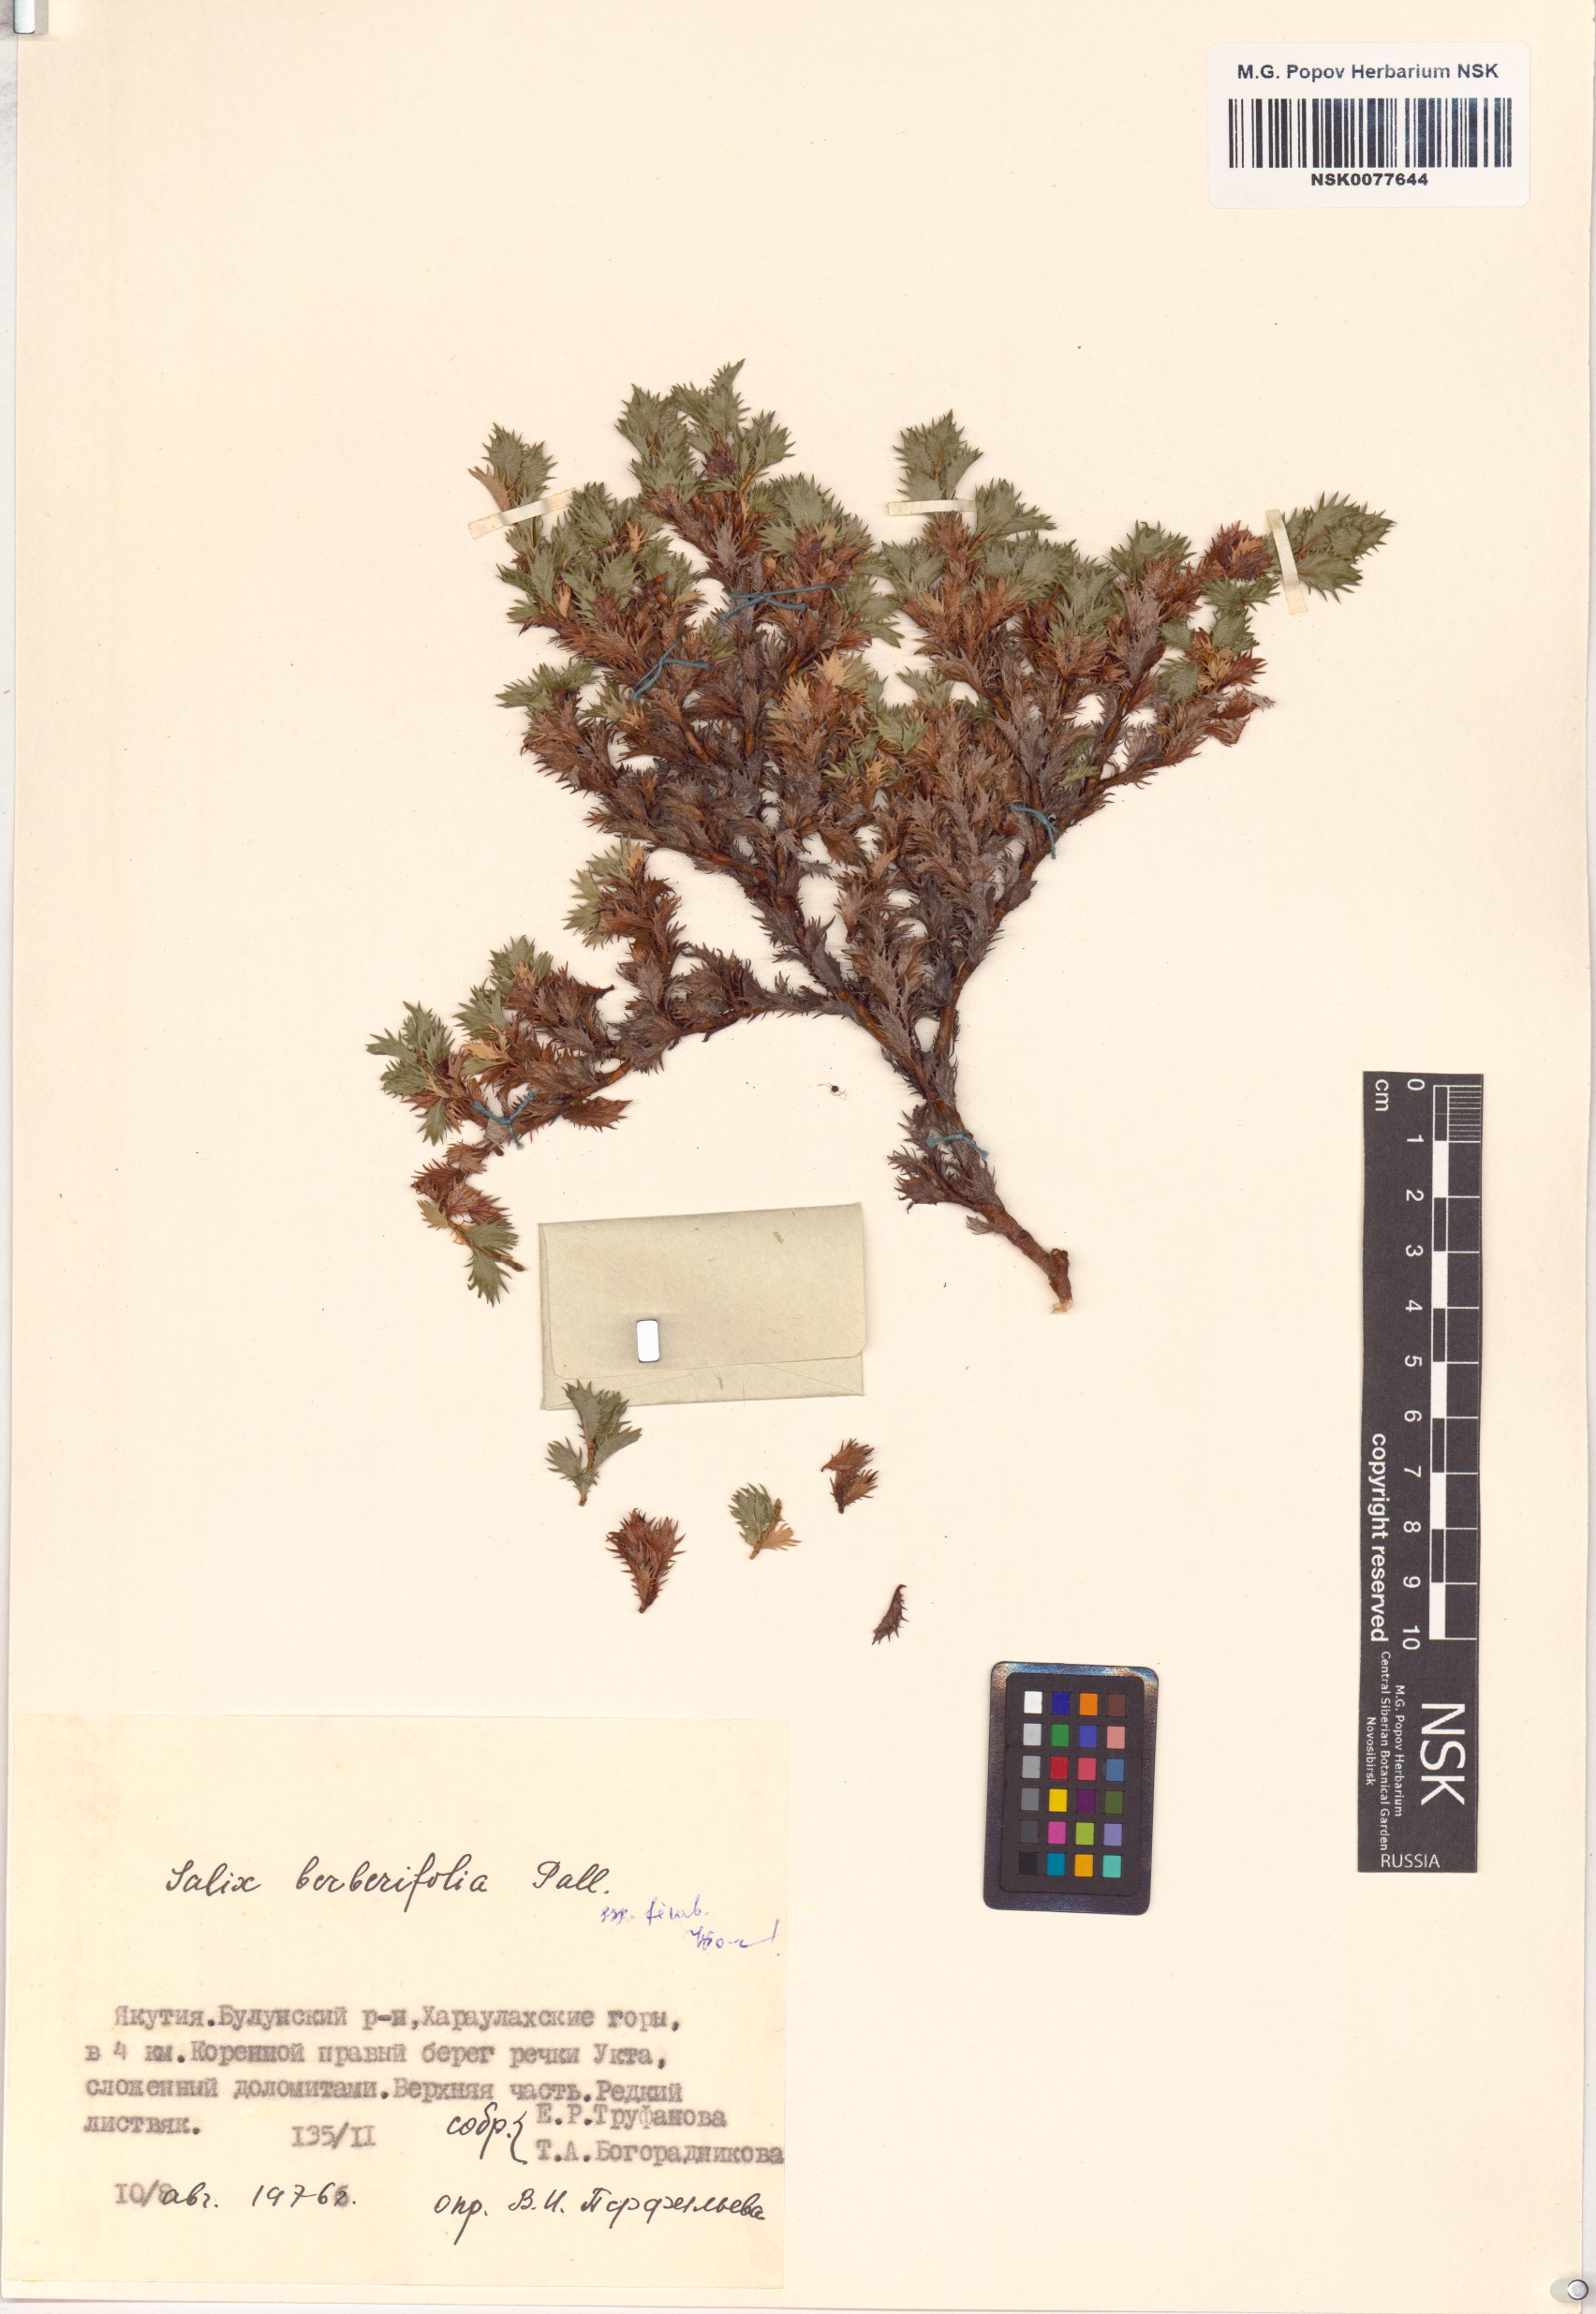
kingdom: Plantae
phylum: Tracheophyta
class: Magnoliopsida
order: Malpighiales
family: Salicaceae
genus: Salix
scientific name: Salix berberifolia
